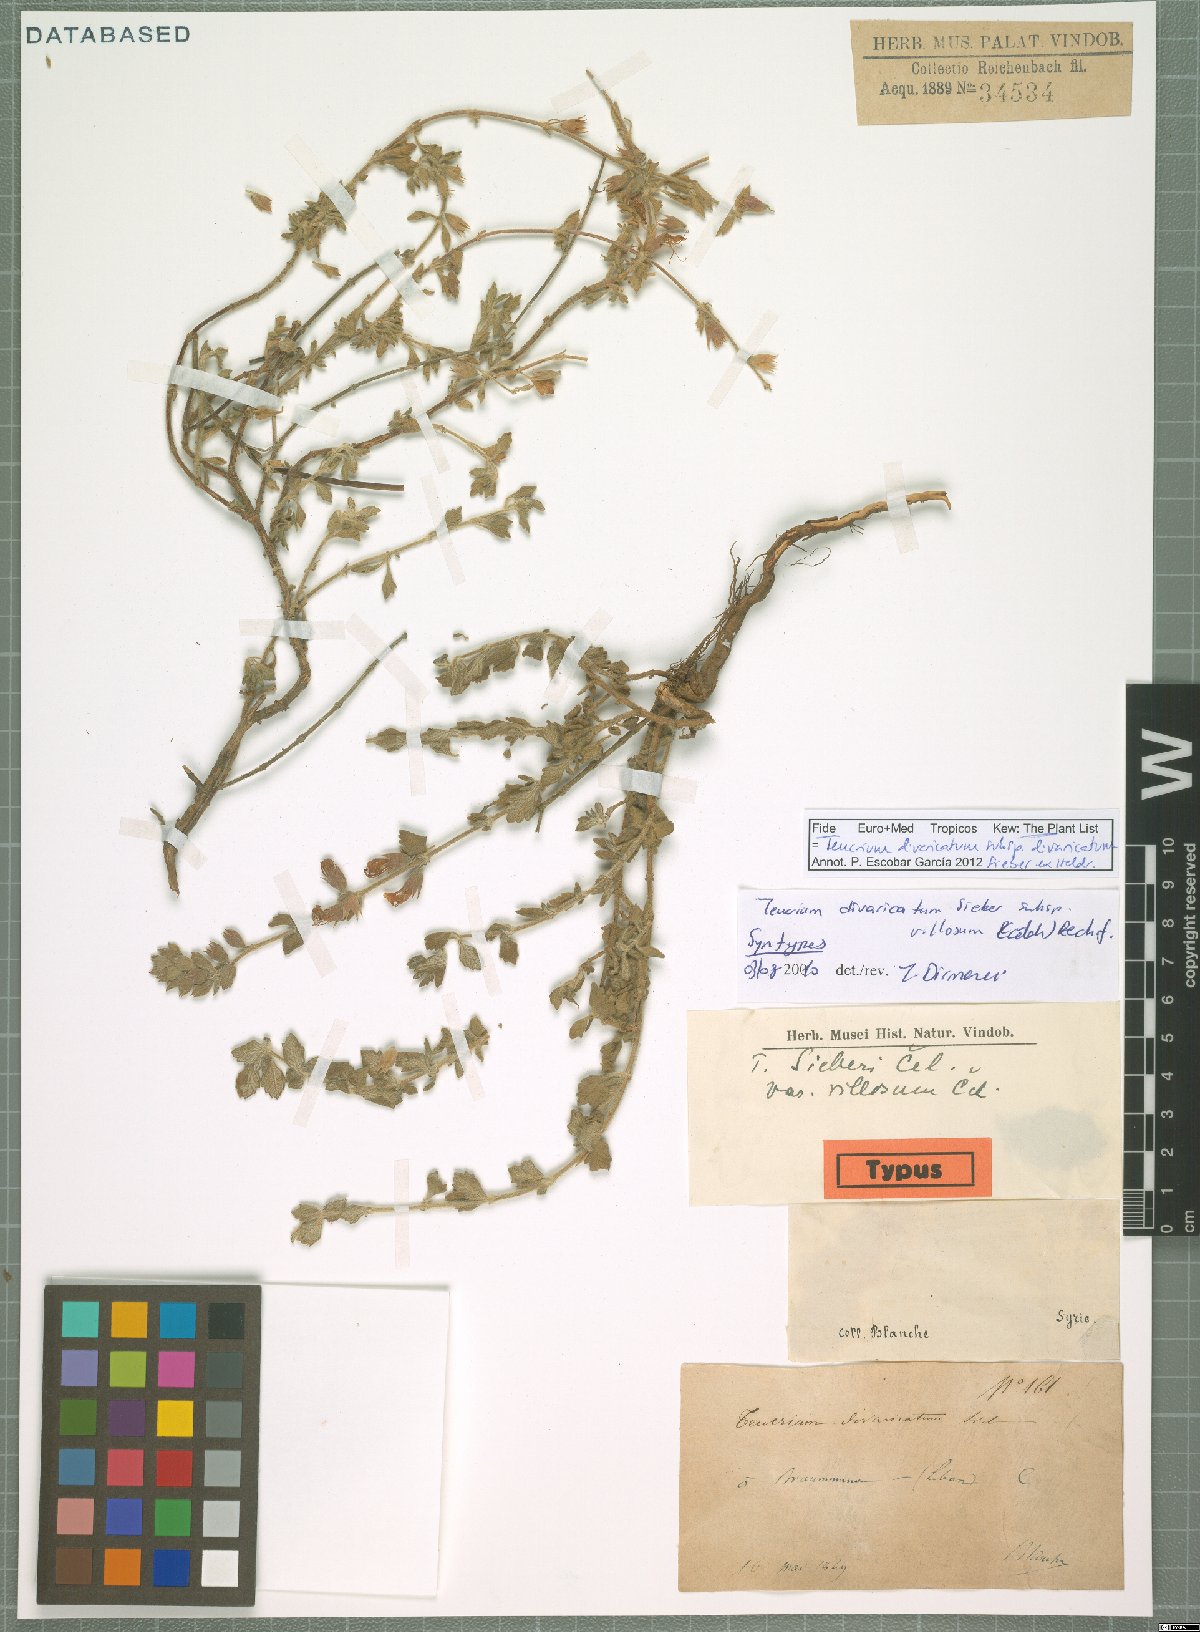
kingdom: Plantae
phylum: Tracheophyta
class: Magnoliopsida
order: Lamiales
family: Lamiaceae
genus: Teucrium
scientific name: Teucrium divaricatum
